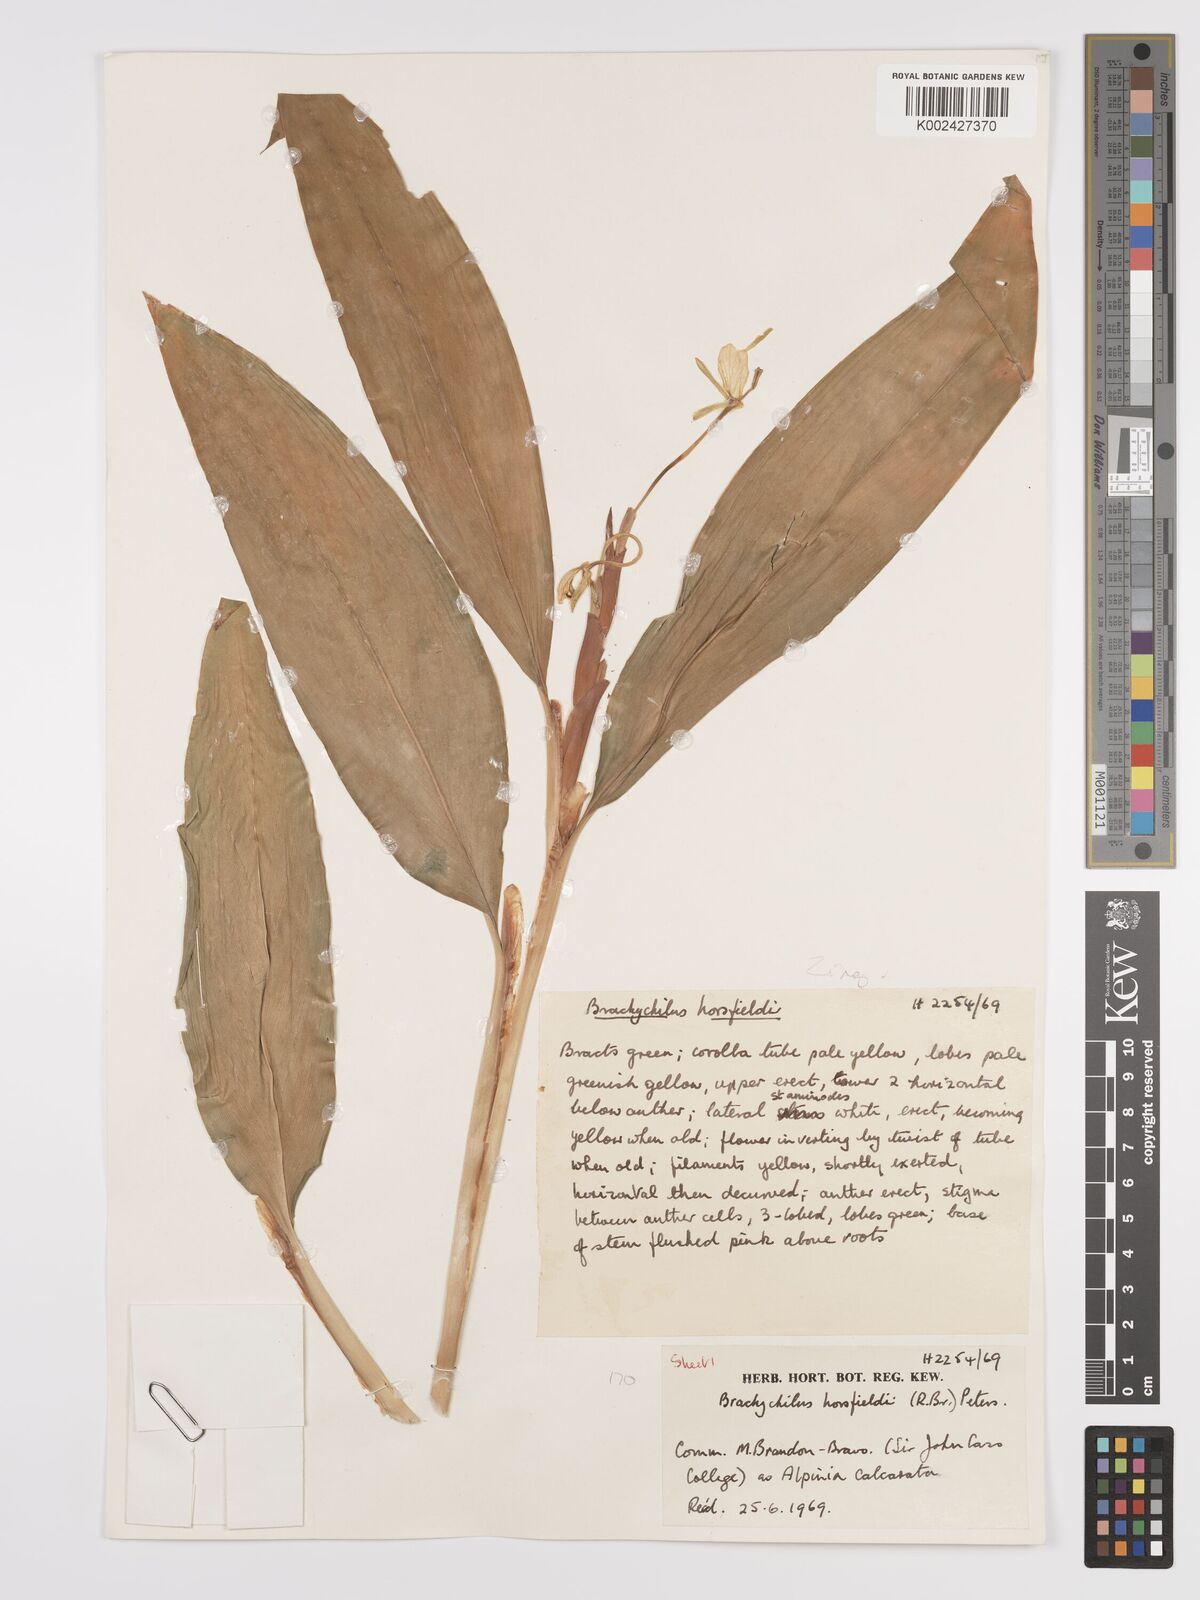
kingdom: Plantae
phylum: Tracheophyta
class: Liliopsida
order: Zingiberales
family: Zingiberaceae
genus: Hedychium
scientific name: Hedychium horsfieldii
